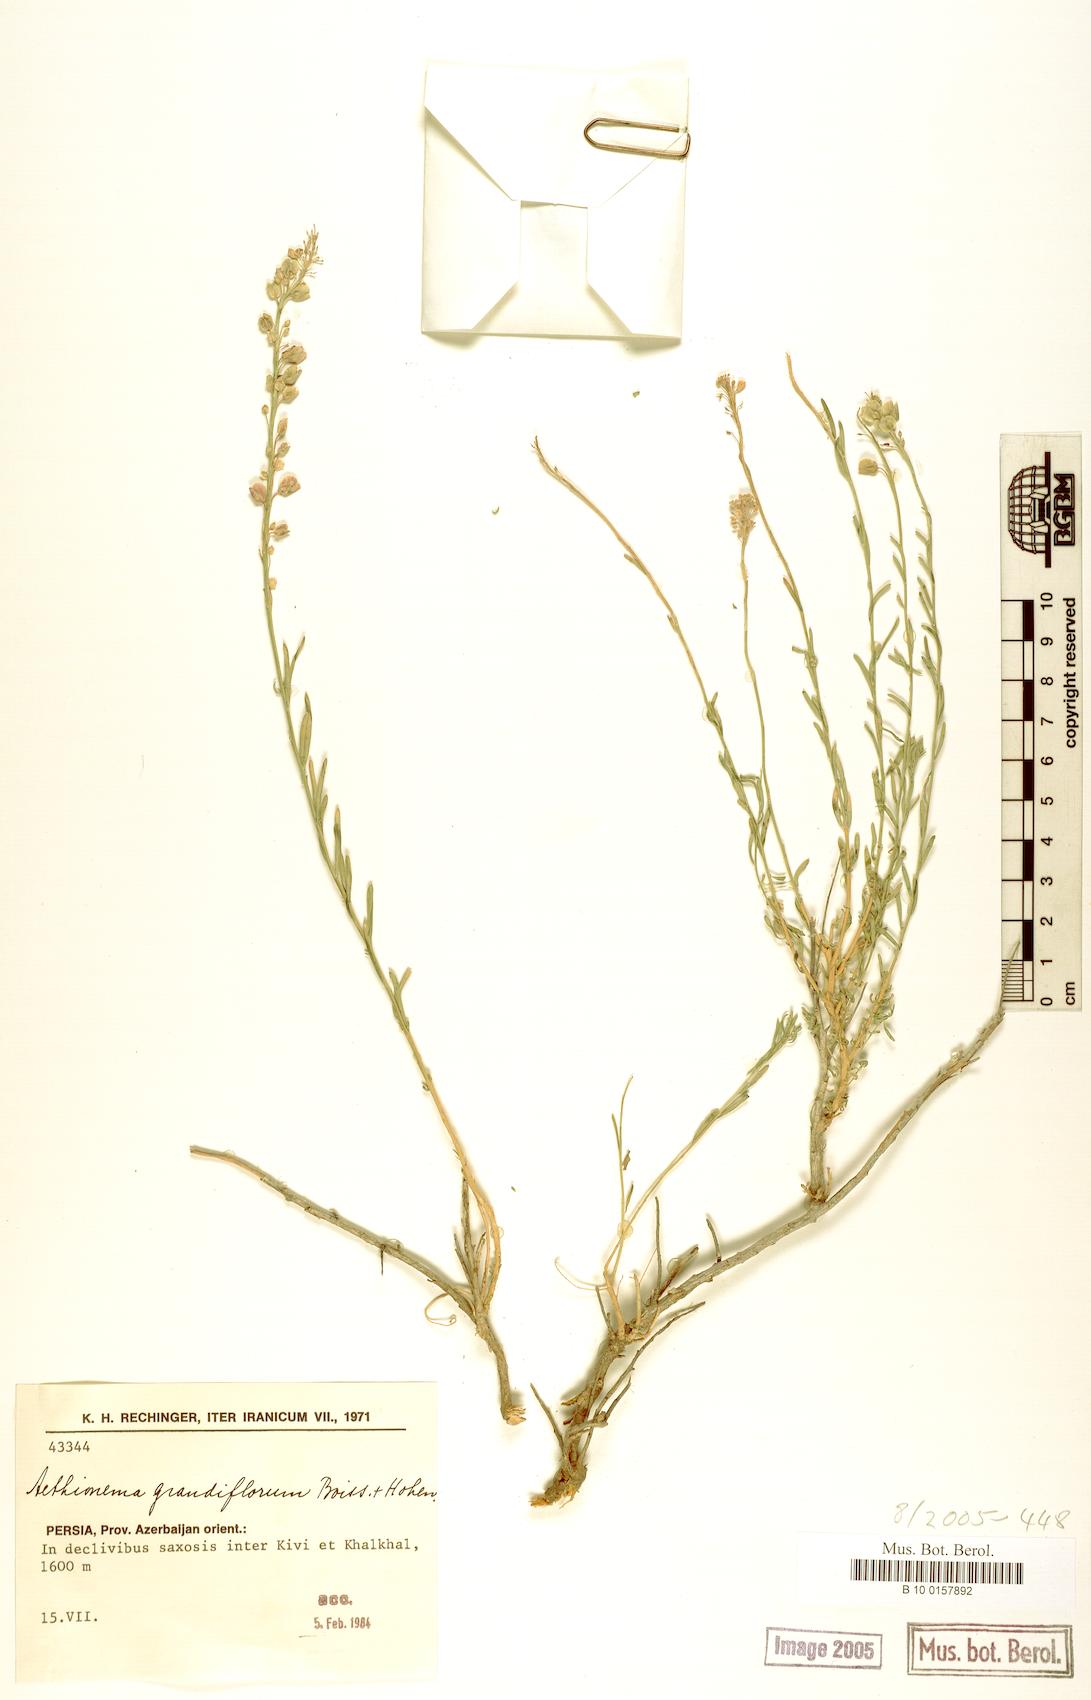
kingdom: Plantae
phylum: Tracheophyta
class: Magnoliopsida
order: Brassicales
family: Brassicaceae
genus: Aethionema
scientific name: Aethionema grandiflorum
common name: Persian stonecress
